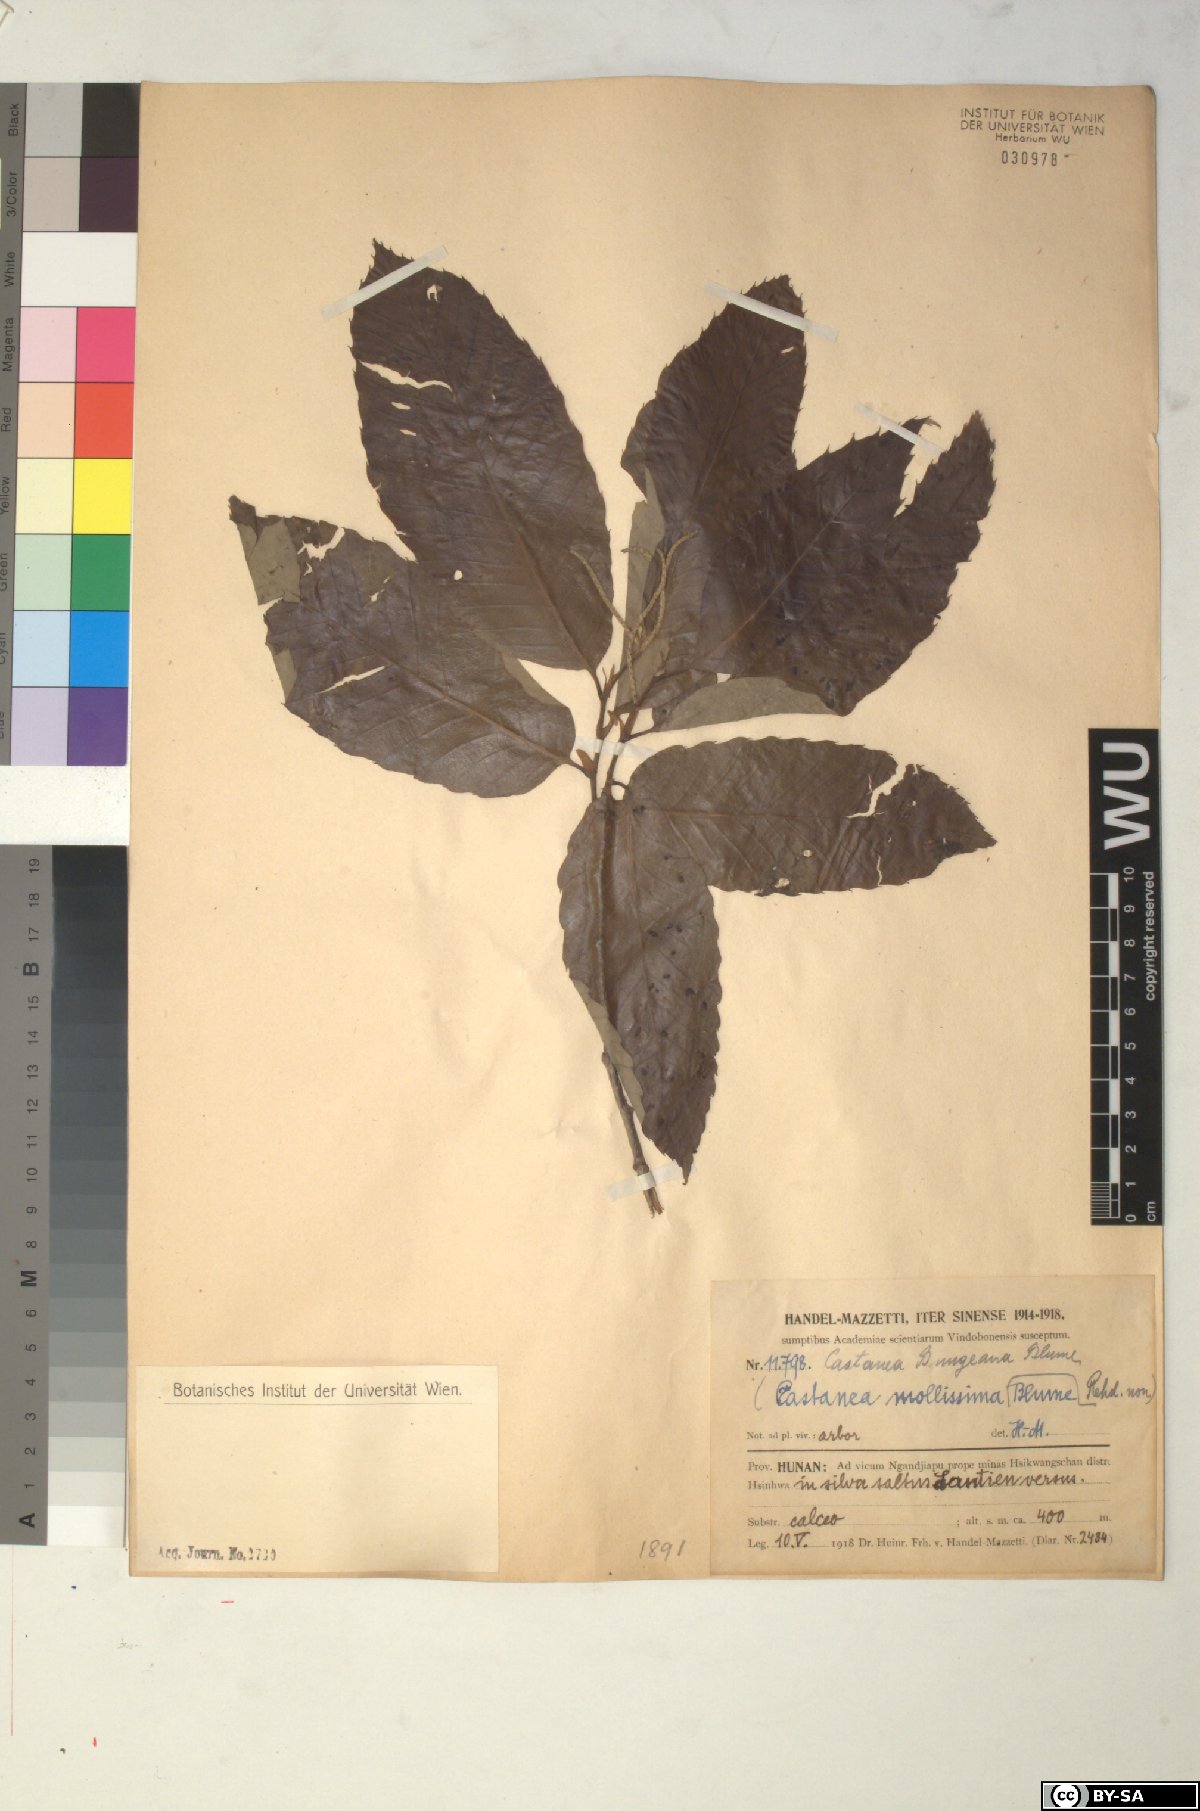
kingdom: Plantae
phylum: Tracheophyta
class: Magnoliopsida
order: Fagales
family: Fagaceae
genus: Castanea
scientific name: Castanea mollissima
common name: Chinese chestnut
